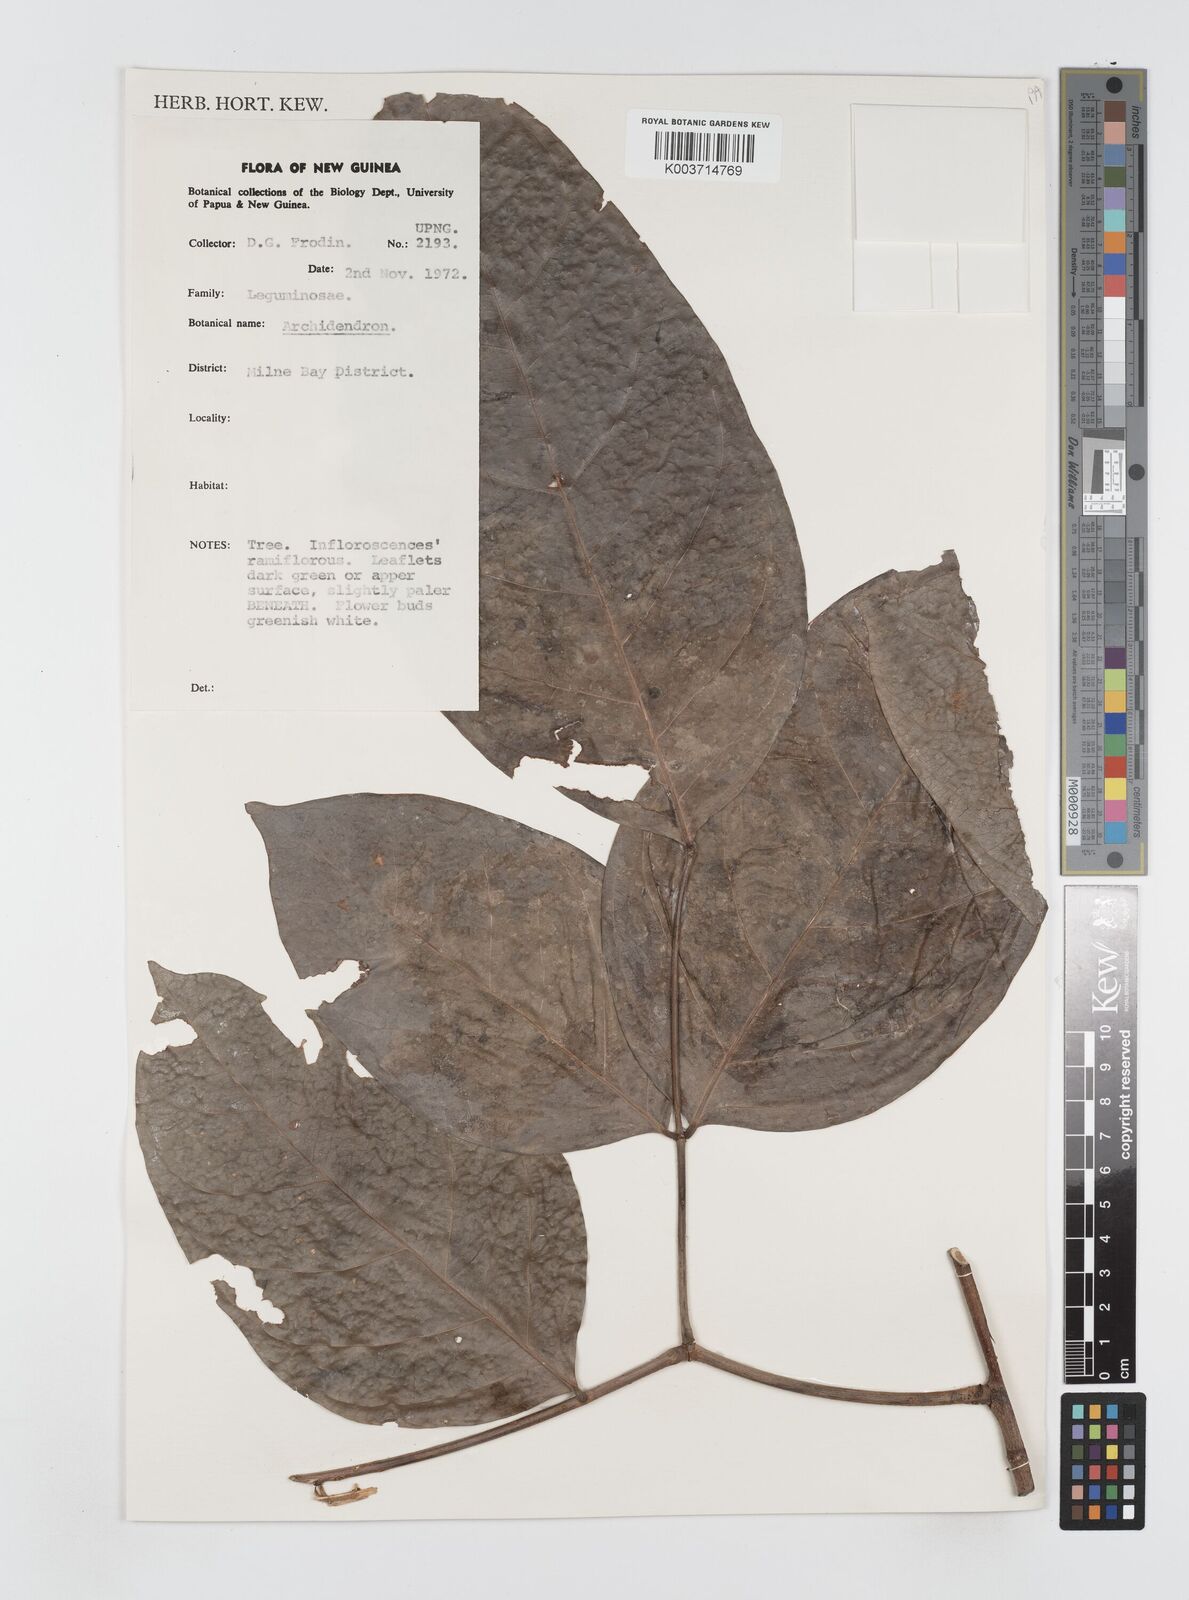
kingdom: Plantae
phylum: Tracheophyta
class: Magnoliopsida
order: Fabales
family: Fabaceae
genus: Archidendron
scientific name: Archidendron
